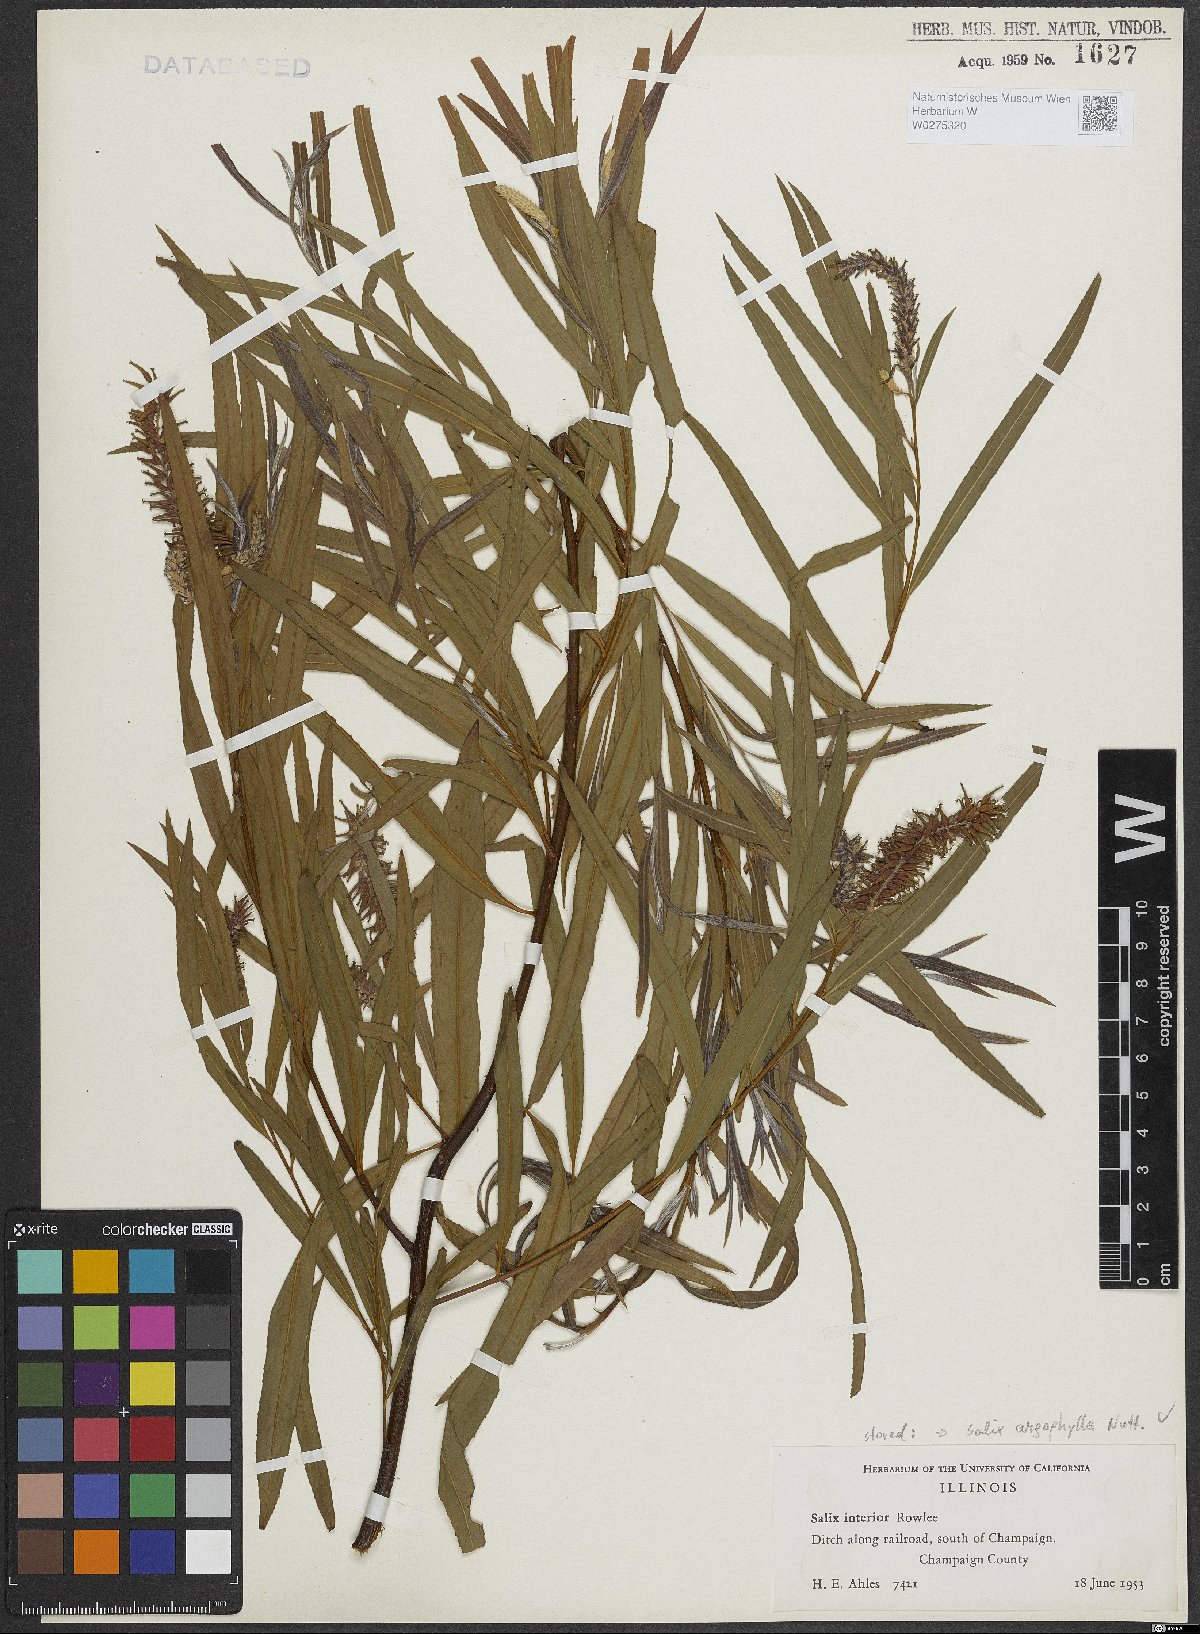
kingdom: Plantae
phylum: Tracheophyta
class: Magnoliopsida
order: Malpighiales
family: Salicaceae
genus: Salix
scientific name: Salix exigua
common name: Coyote willow
